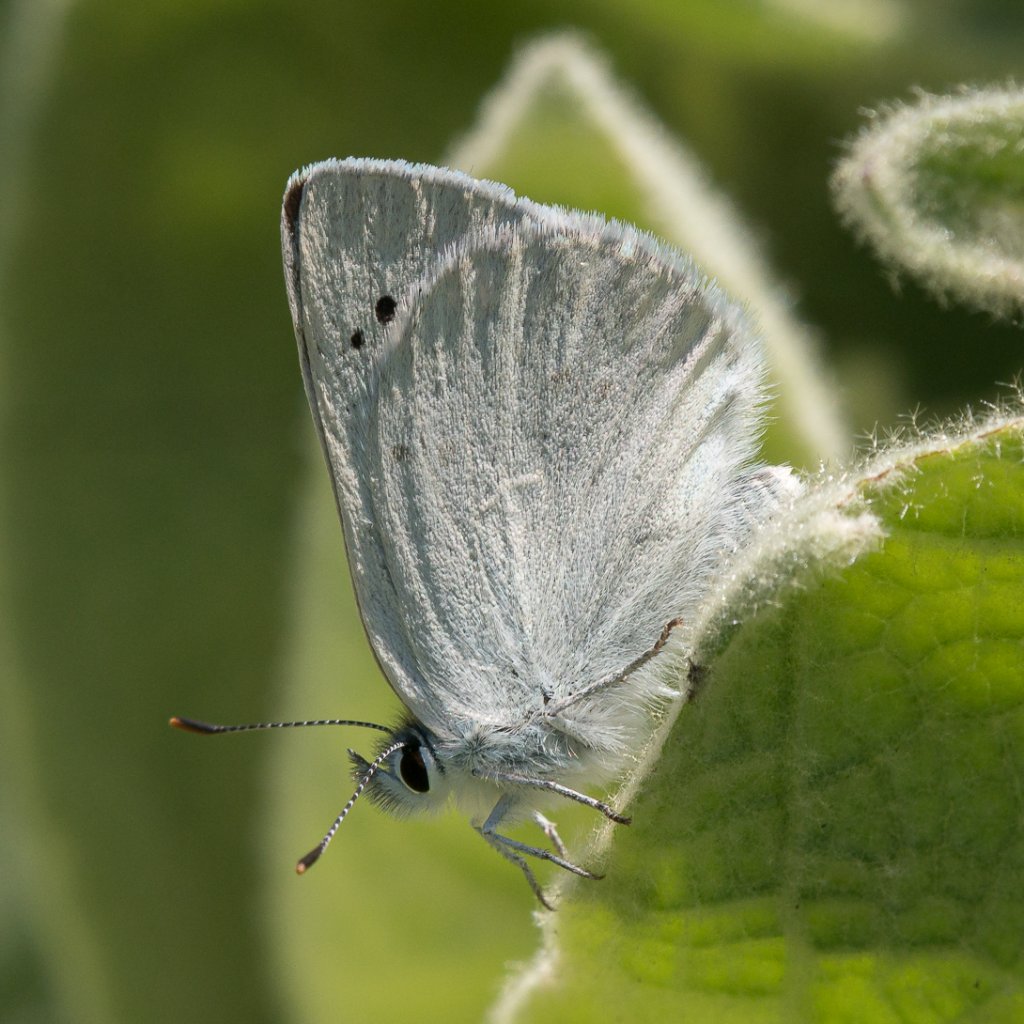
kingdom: Animalia
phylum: Arthropoda
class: Insecta
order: Lepidoptera
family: Lycaenidae
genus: Lycaena
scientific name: Lycaena heteronea
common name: Blue Copper
